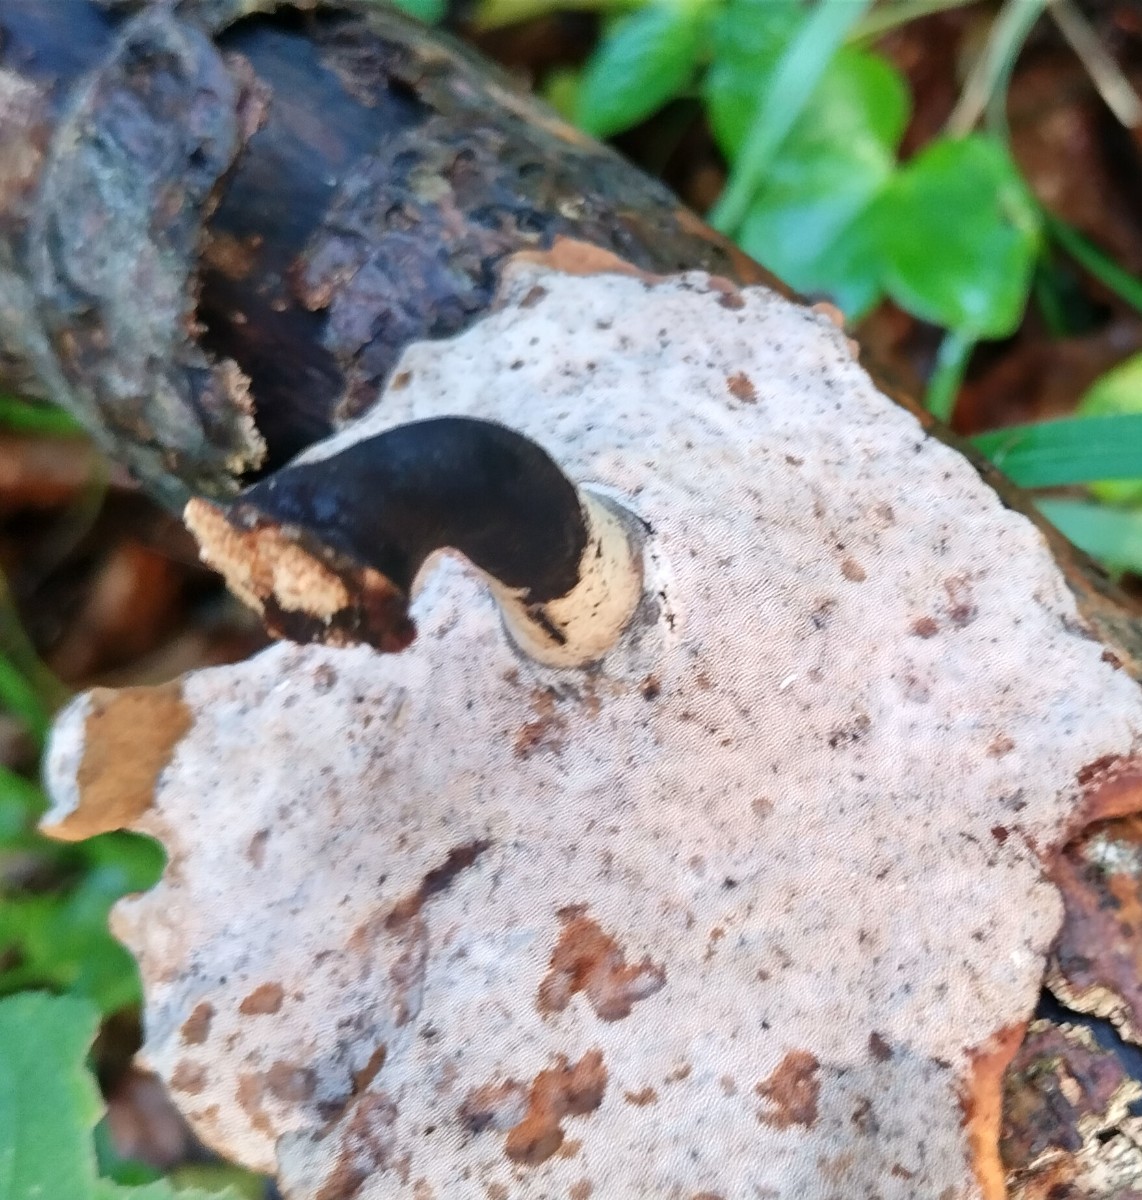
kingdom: Fungi
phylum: Basidiomycota
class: Agaricomycetes
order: Polyporales
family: Polyporaceae
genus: Cerioporus
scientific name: Cerioporus varius
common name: foranderlig stilkporesvamp
